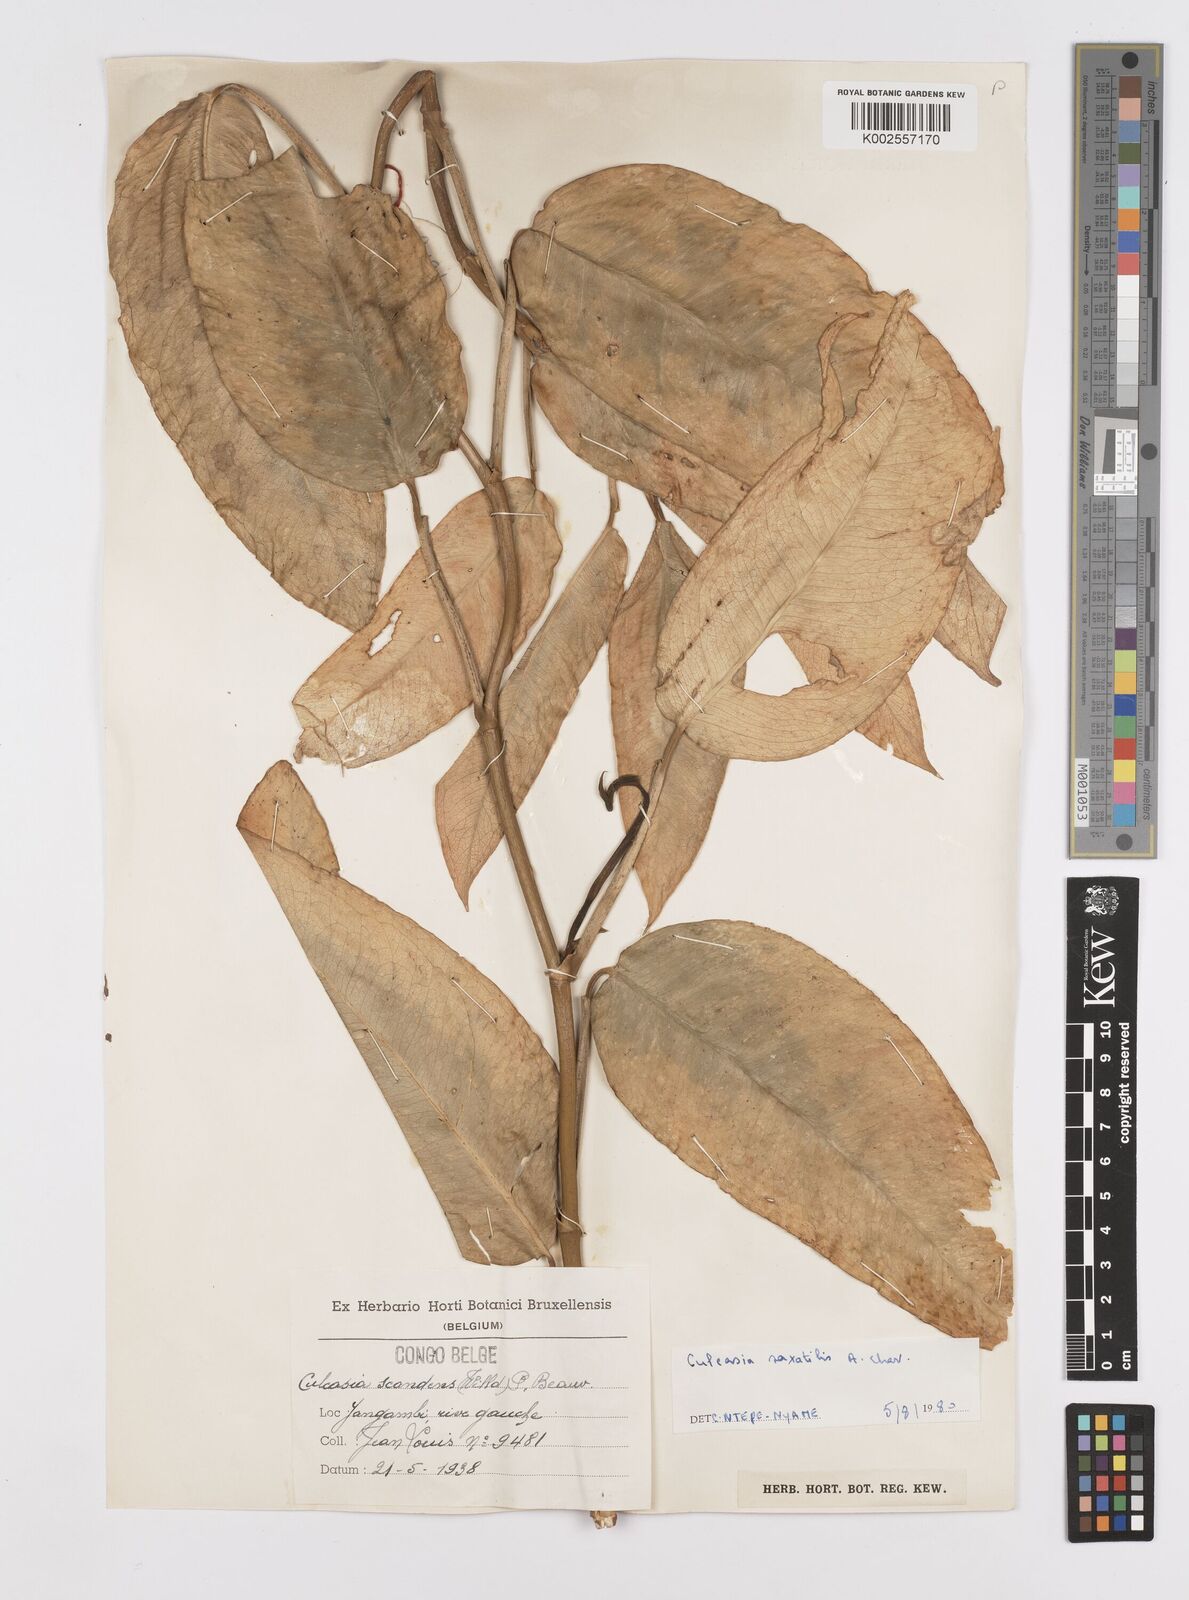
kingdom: Plantae
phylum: Tracheophyta
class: Liliopsida
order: Alismatales
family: Araceae
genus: Culcasia
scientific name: Culcasia scandens
